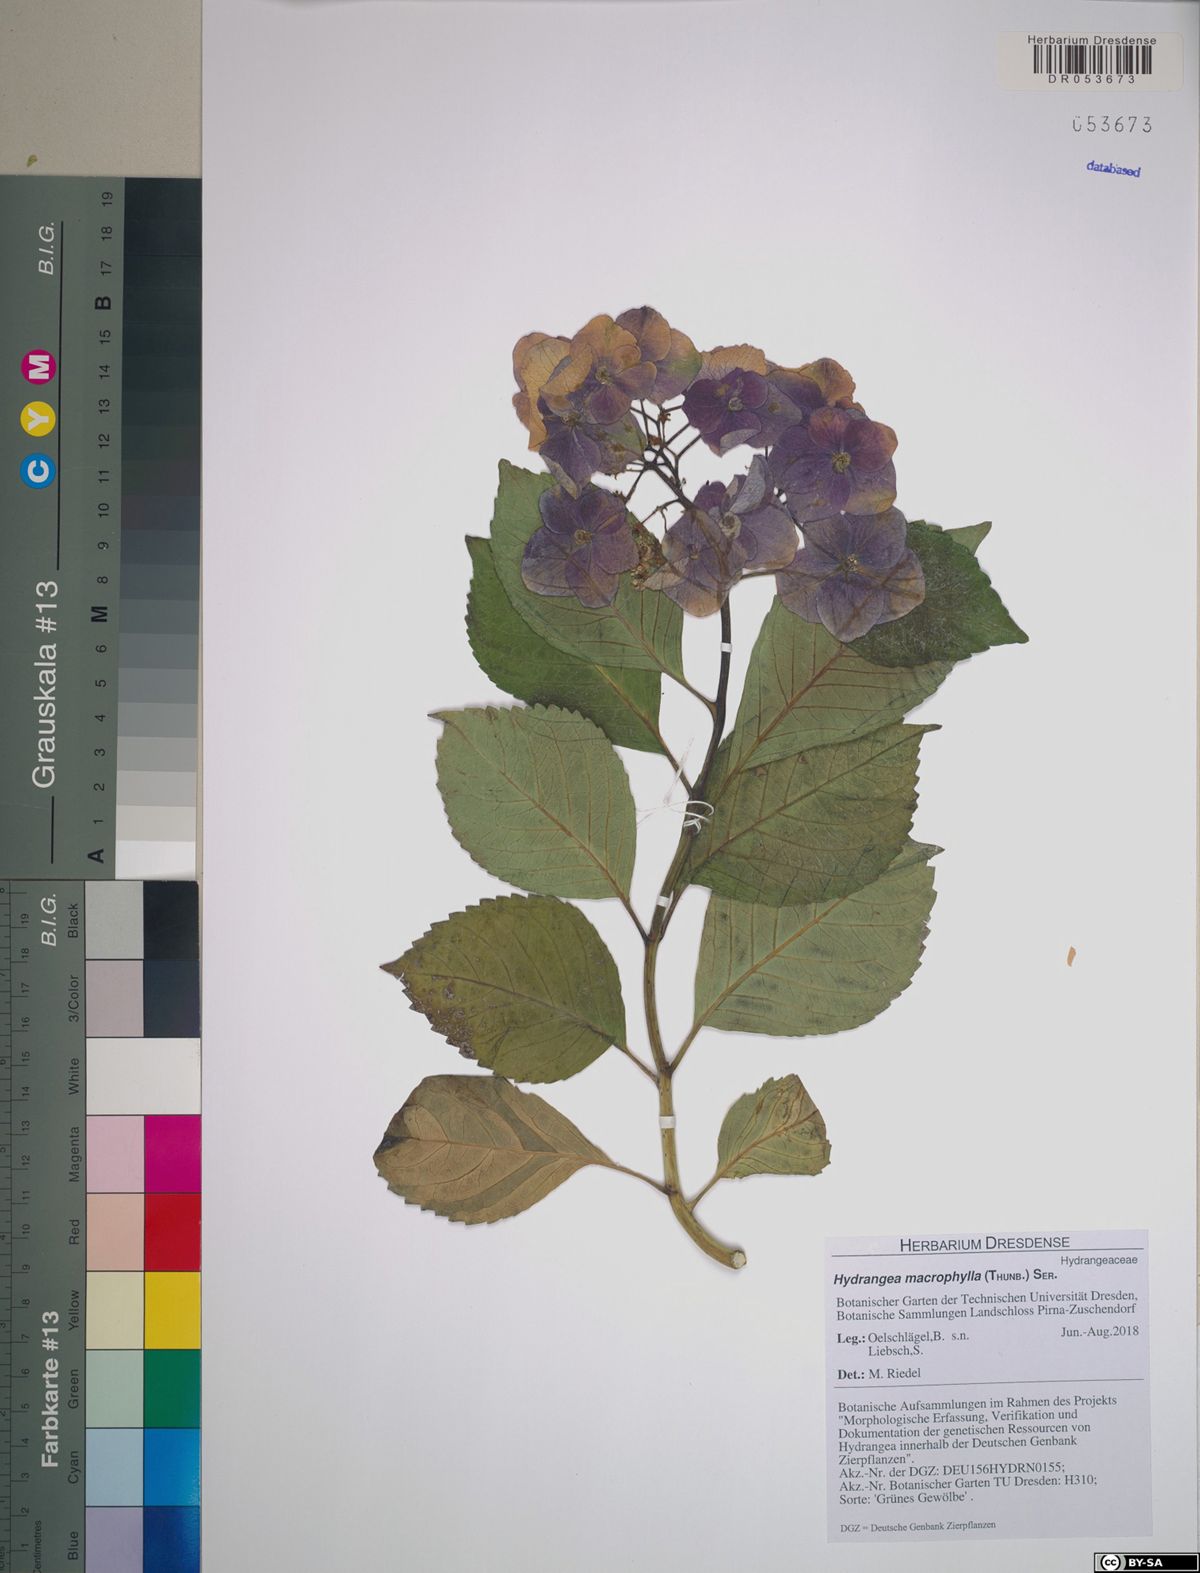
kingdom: Plantae
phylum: Tracheophyta
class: Magnoliopsida
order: Cornales
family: Hydrangeaceae
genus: Hydrangea
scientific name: Hydrangea macrophylla
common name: Hydrangea
